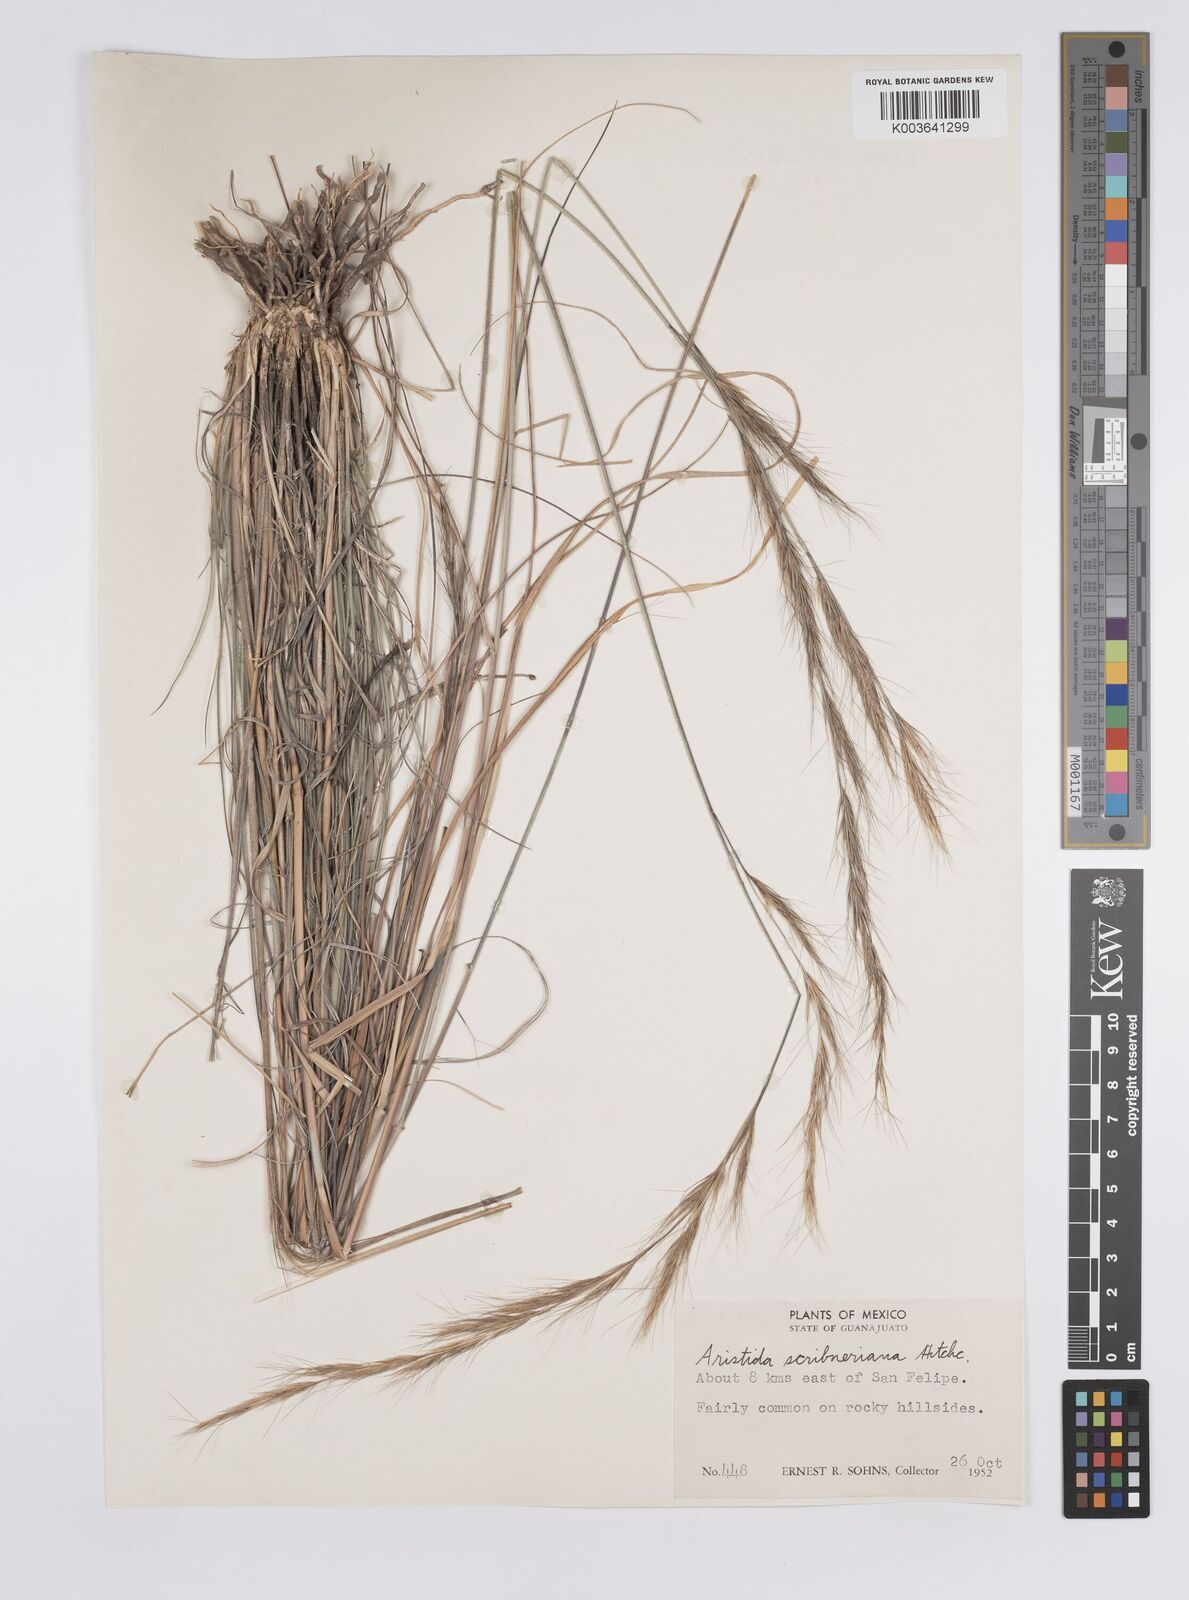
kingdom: Plantae
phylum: Tracheophyta
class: Liliopsida
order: Poales
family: Poaceae
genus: Aristida
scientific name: Aristida scribneriana
